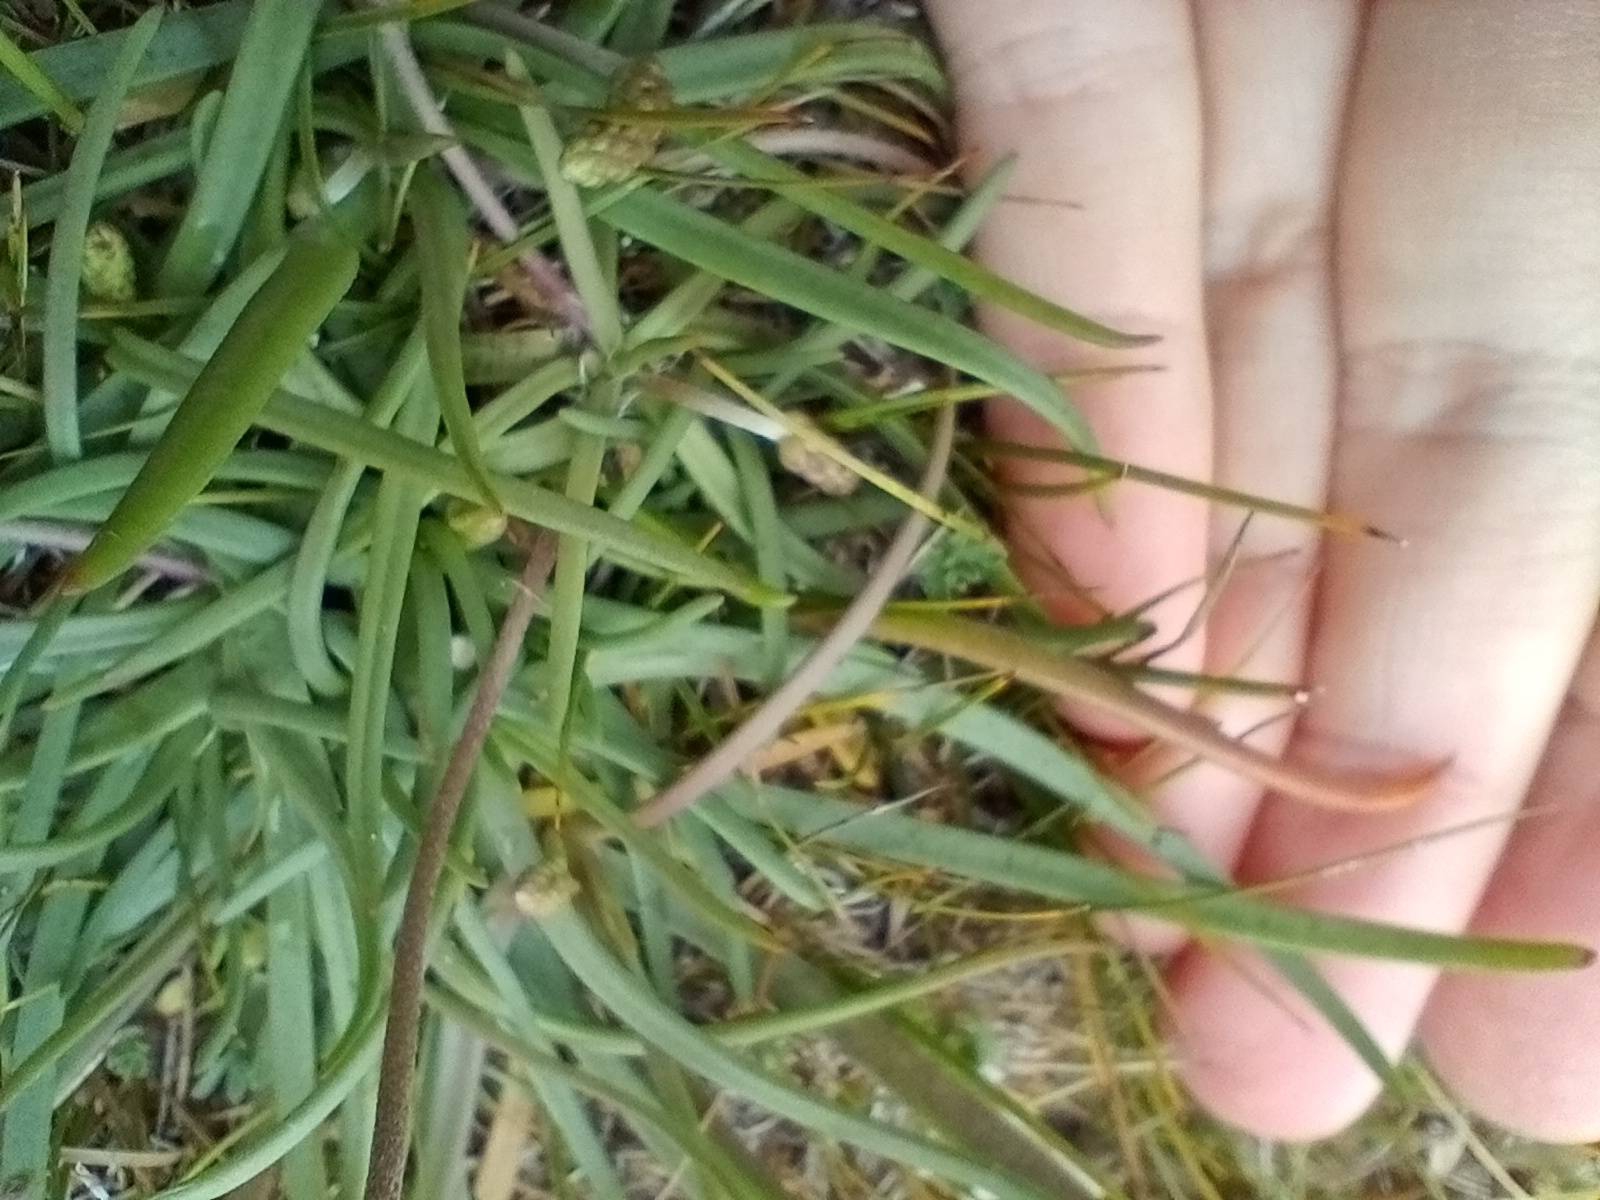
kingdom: Plantae
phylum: Tracheophyta
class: Magnoliopsida
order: Lamiales
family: Plantaginaceae
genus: Plantago
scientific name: Plantago maritima
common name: Strand-vejbred
